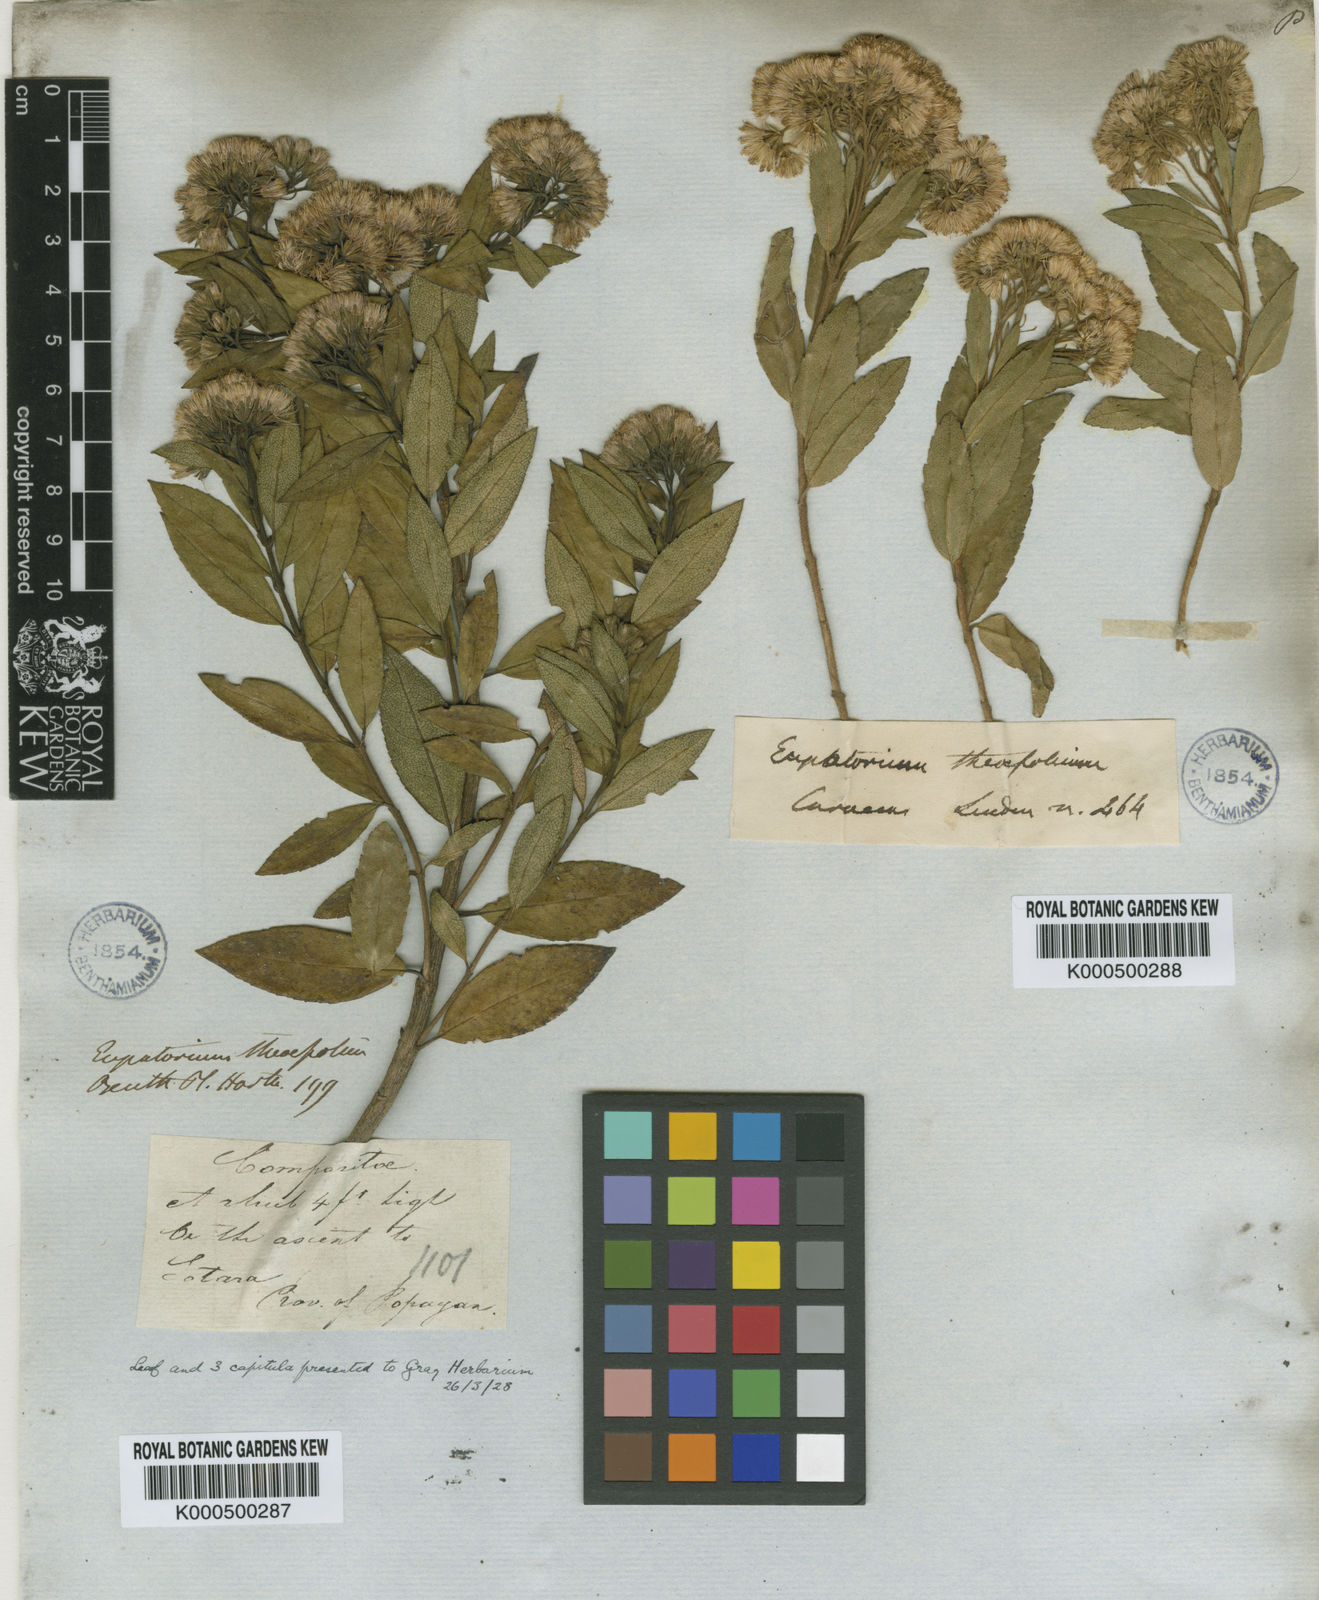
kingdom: Plantae
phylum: Tracheophyta
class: Magnoliopsida
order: Asterales
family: Asteraceae
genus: Ageratina
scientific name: Ageratina theifolia
